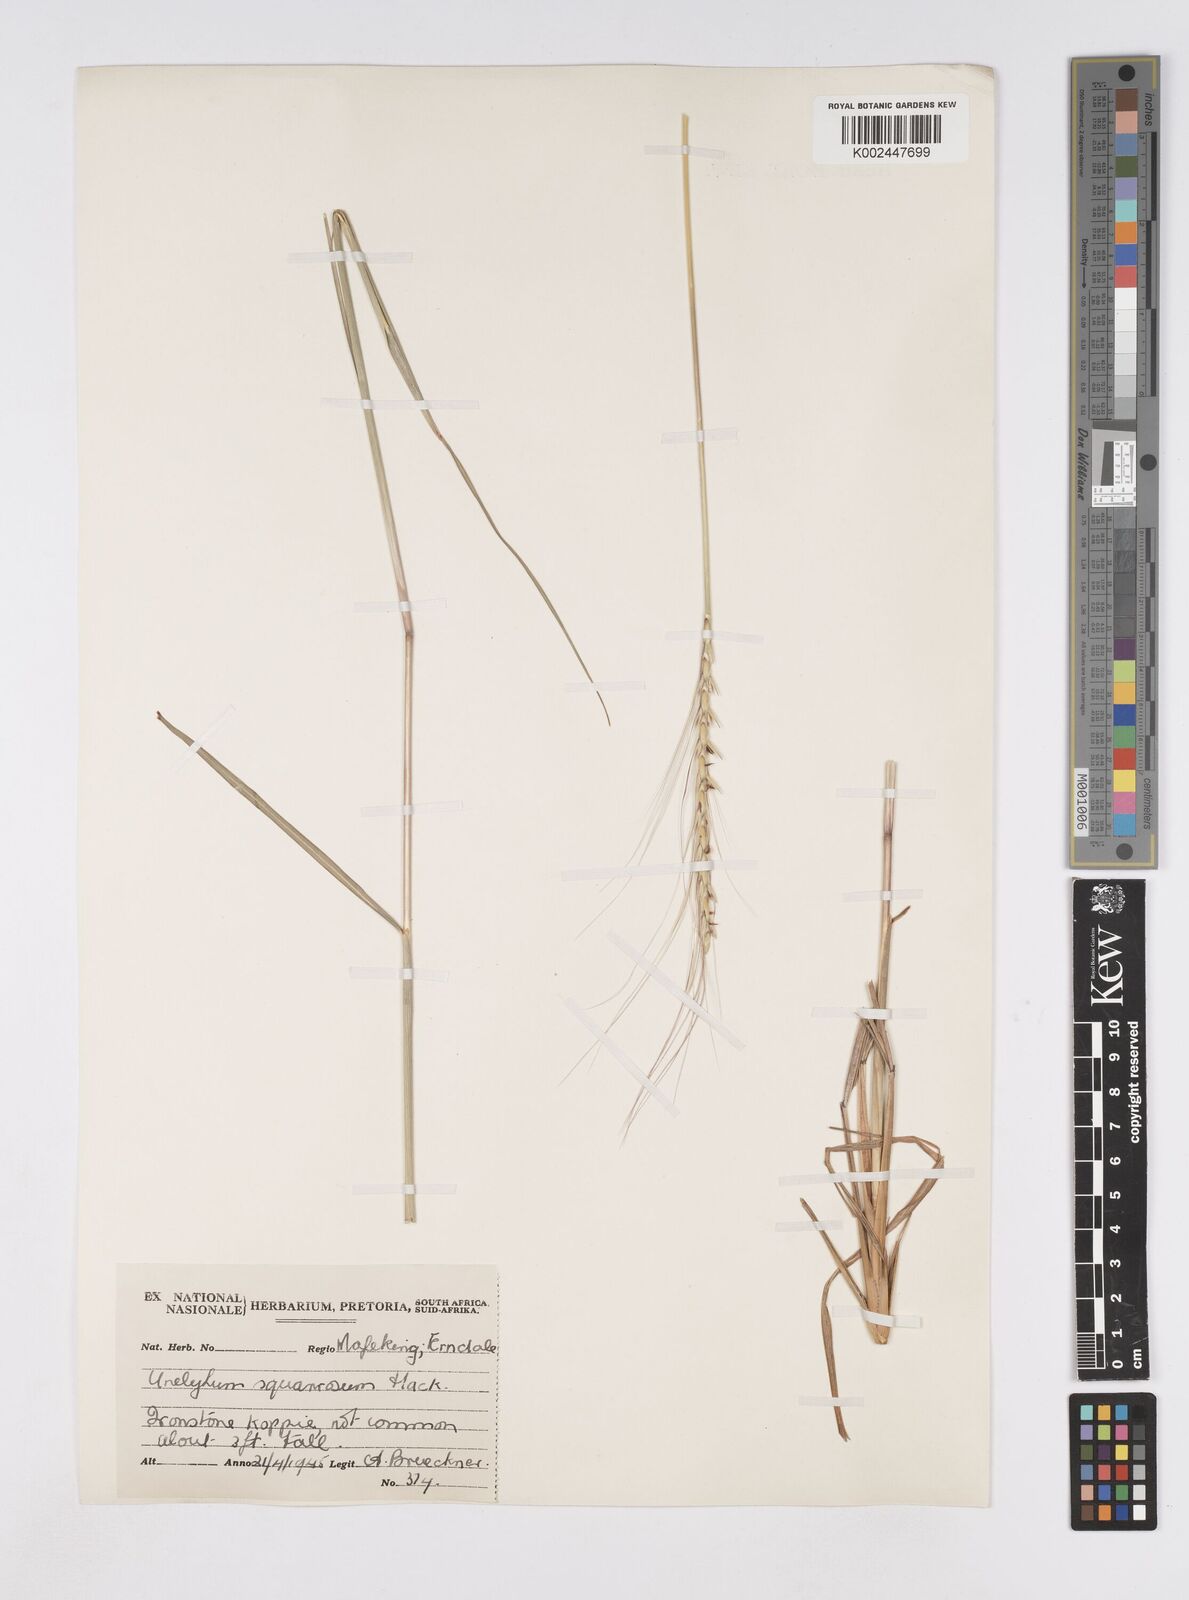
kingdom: Plantae
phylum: Tracheophyta
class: Liliopsida
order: Poales
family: Poaceae
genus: Urelytrum
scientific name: Urelytrum agropyroides
